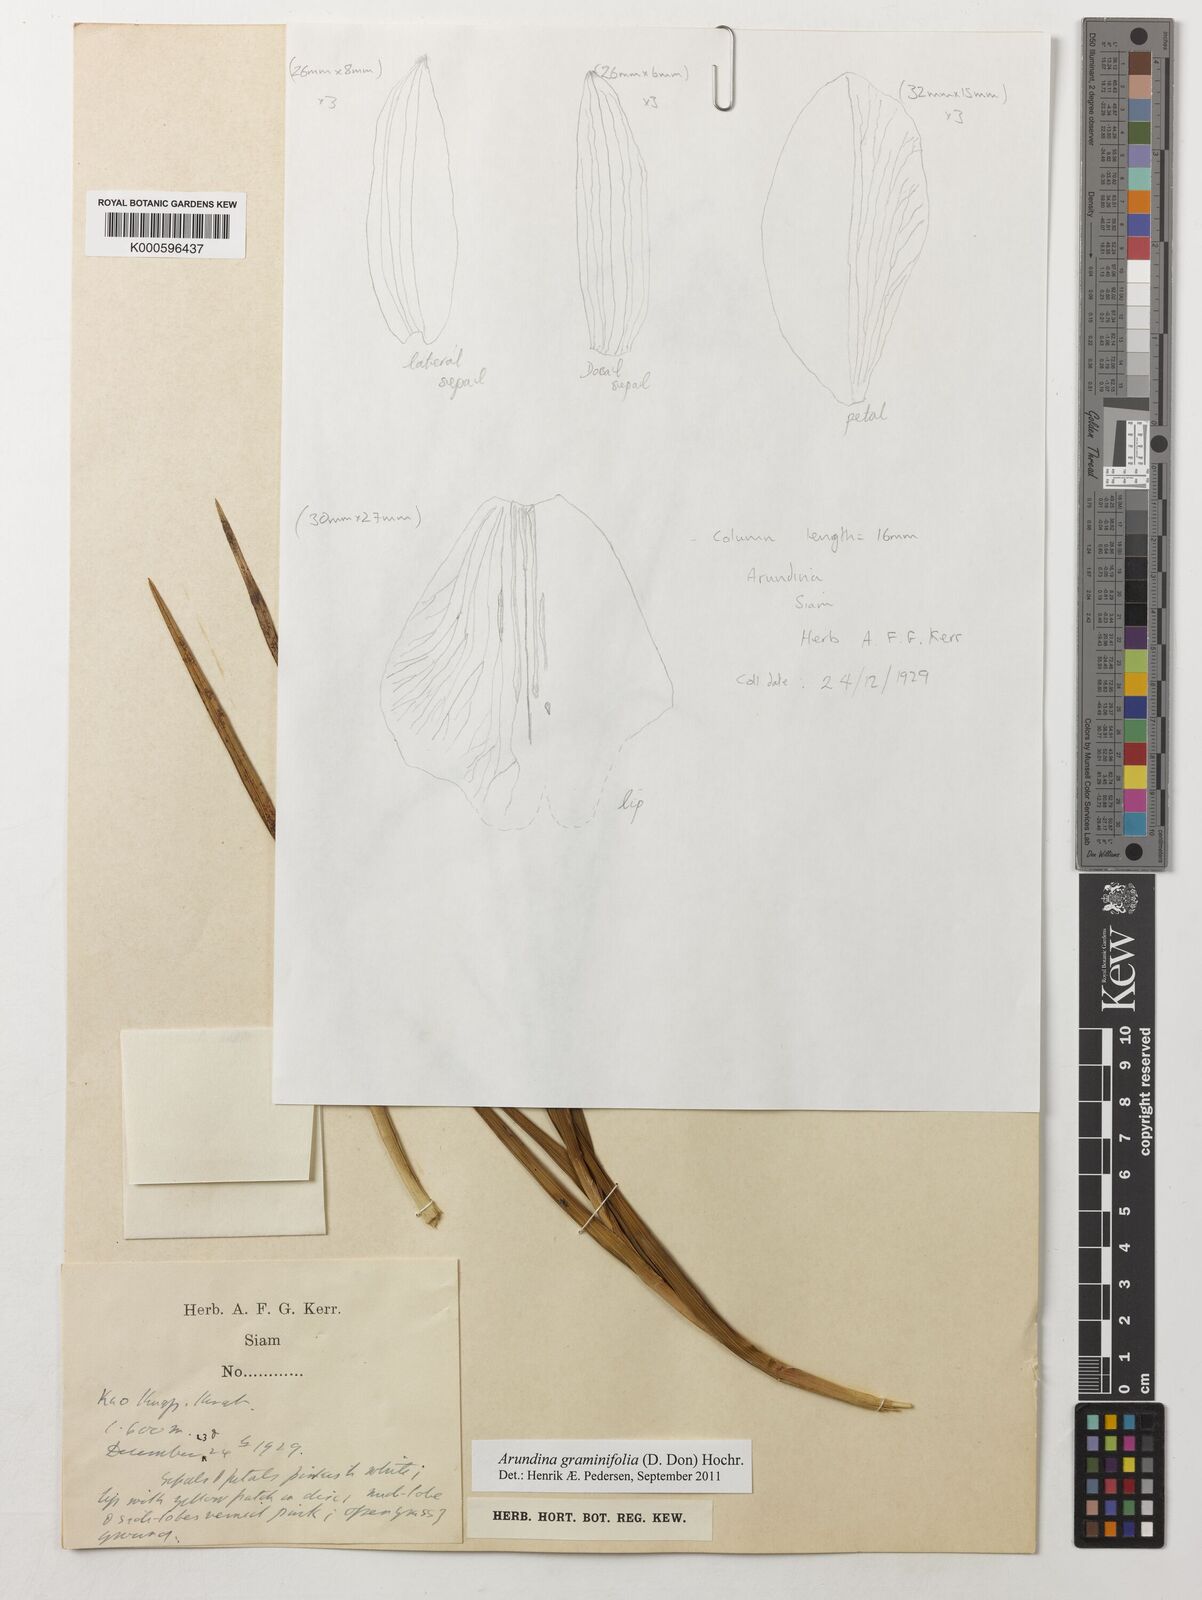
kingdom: Plantae
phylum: Tracheophyta
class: Liliopsida
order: Asparagales
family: Orchidaceae
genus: Arundina
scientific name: Arundina graminifolia
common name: Bamboo orchid
